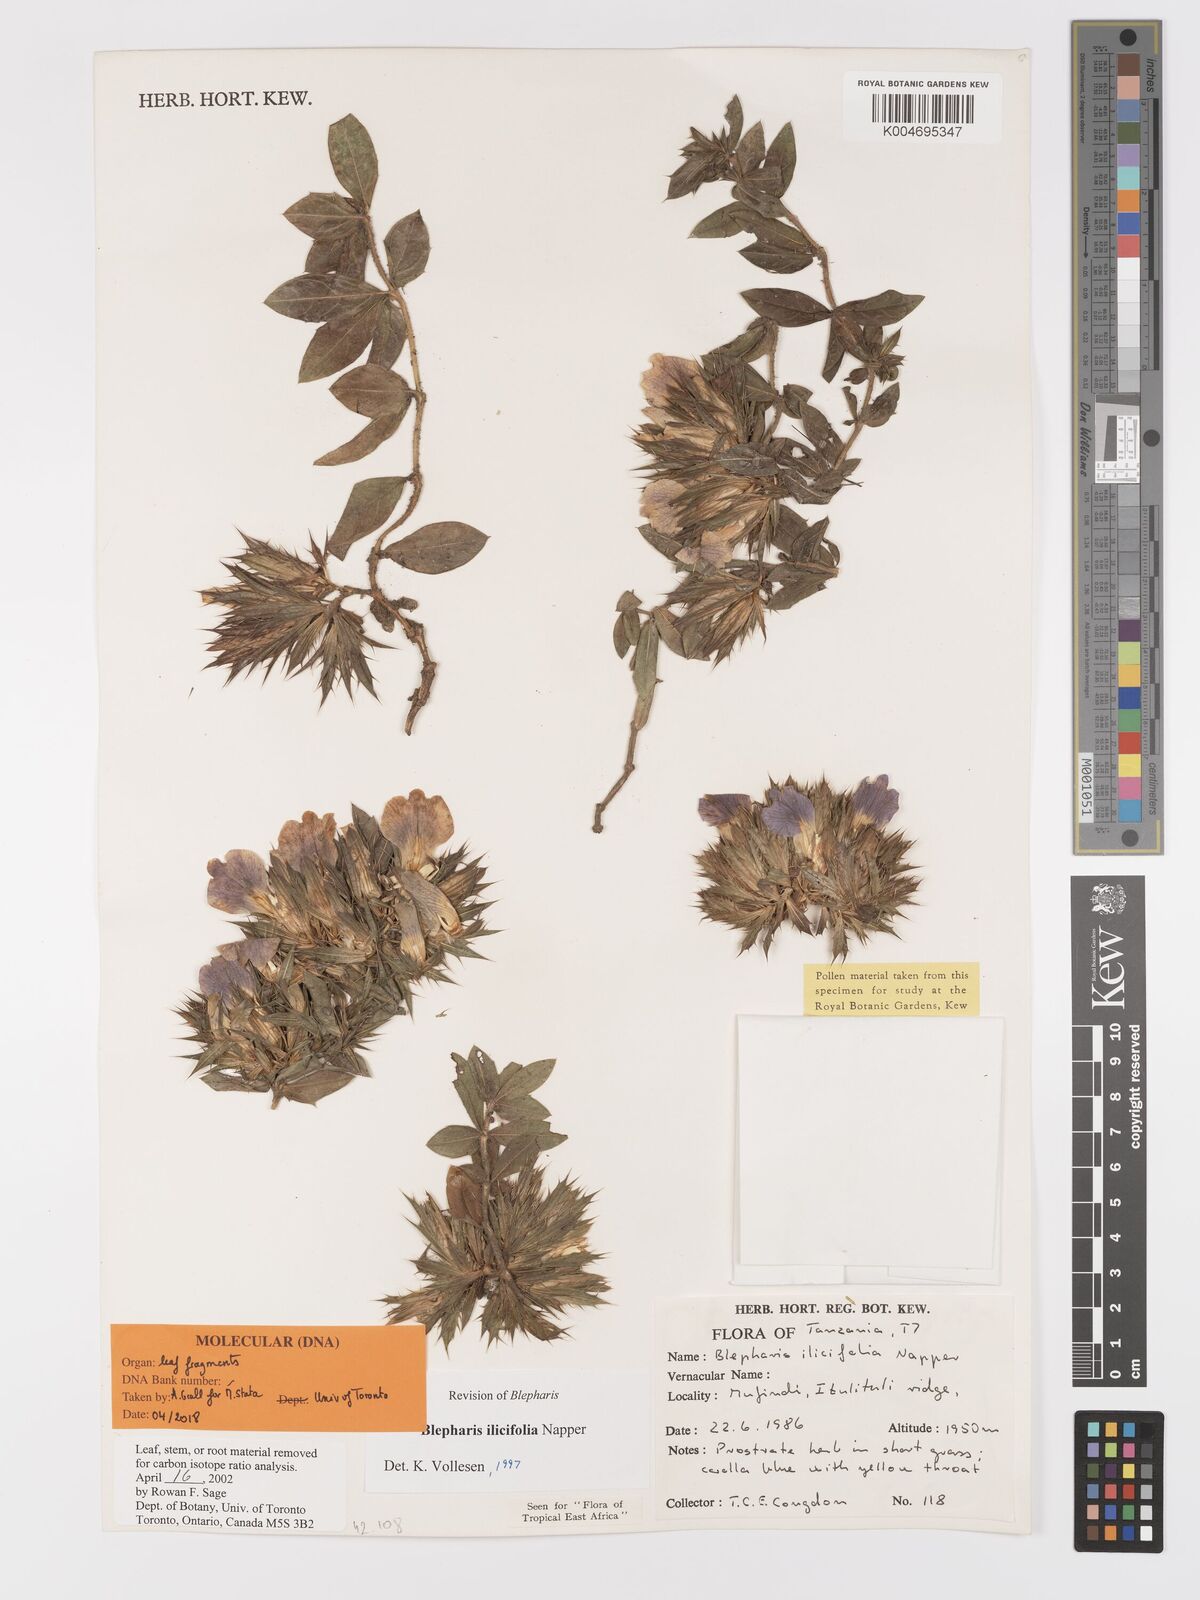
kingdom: Plantae
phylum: Tracheophyta
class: Magnoliopsida
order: Lamiales
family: Acanthaceae
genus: Blepharis
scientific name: Blepharis ilicifolia
